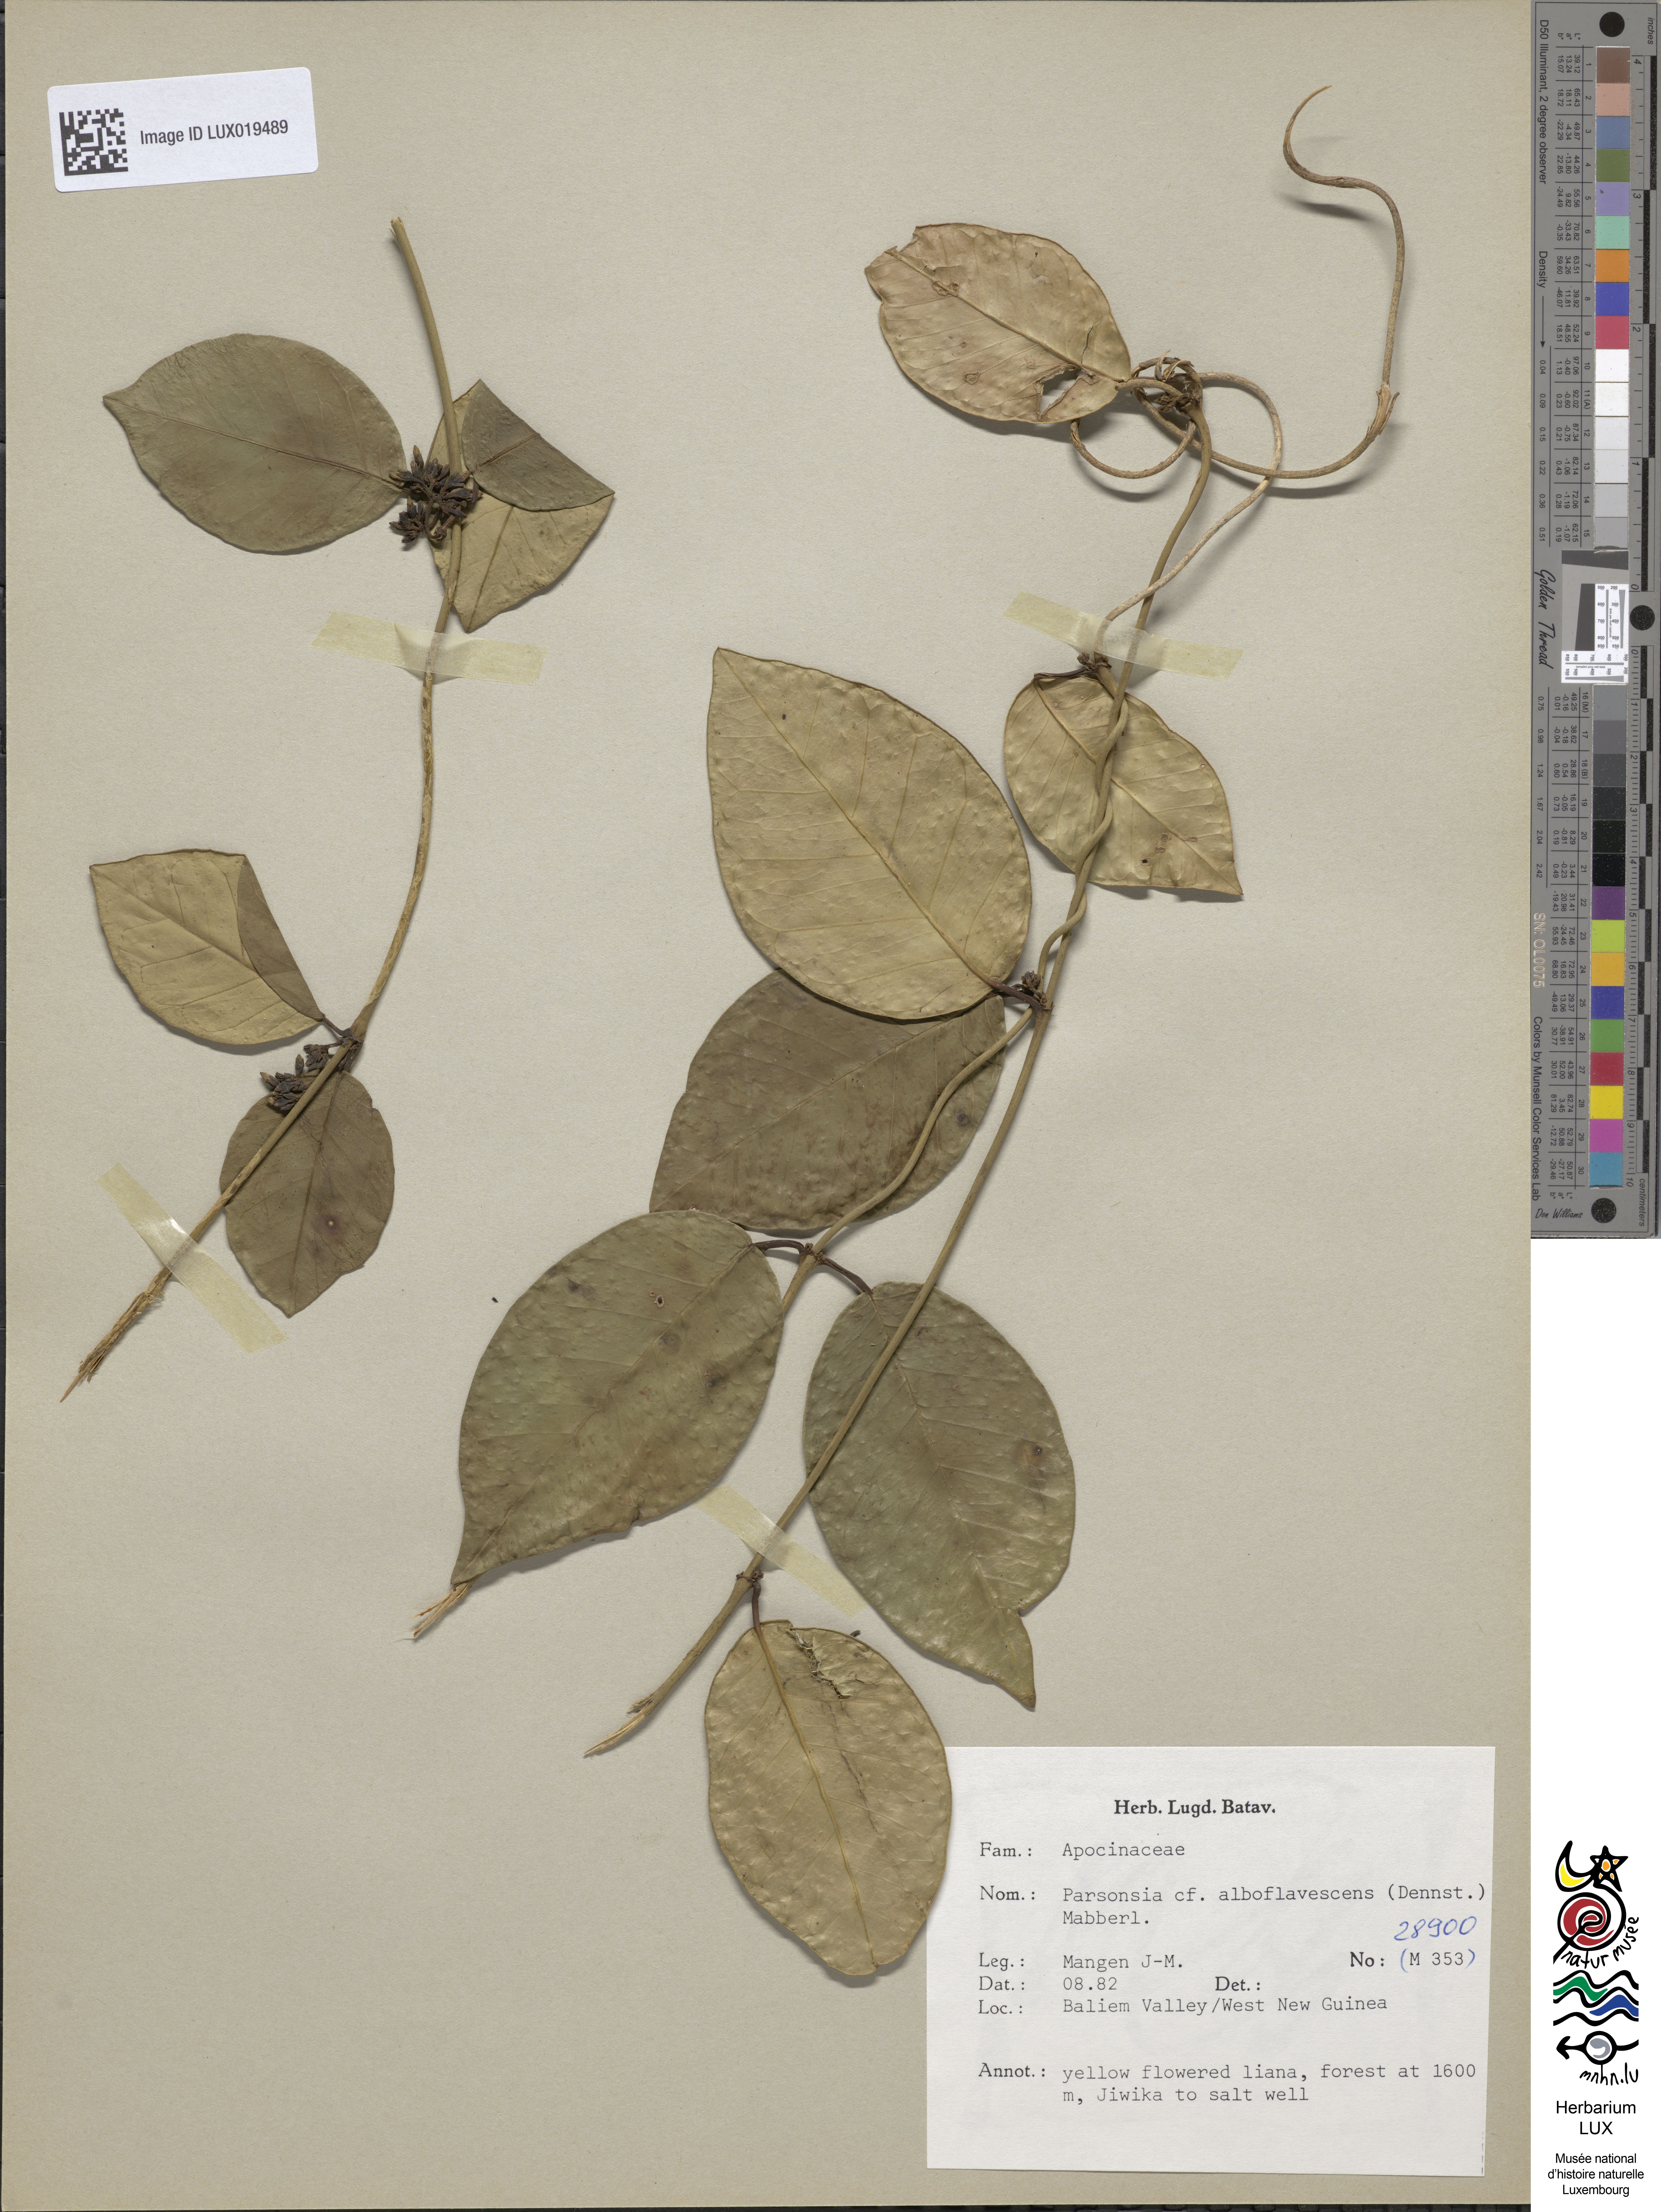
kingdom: Plantae
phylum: Tracheophyta
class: Magnoliopsida
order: Gentianales
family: Apocynaceae
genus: Parsonsia
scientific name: Parsonsia alboflavescens
